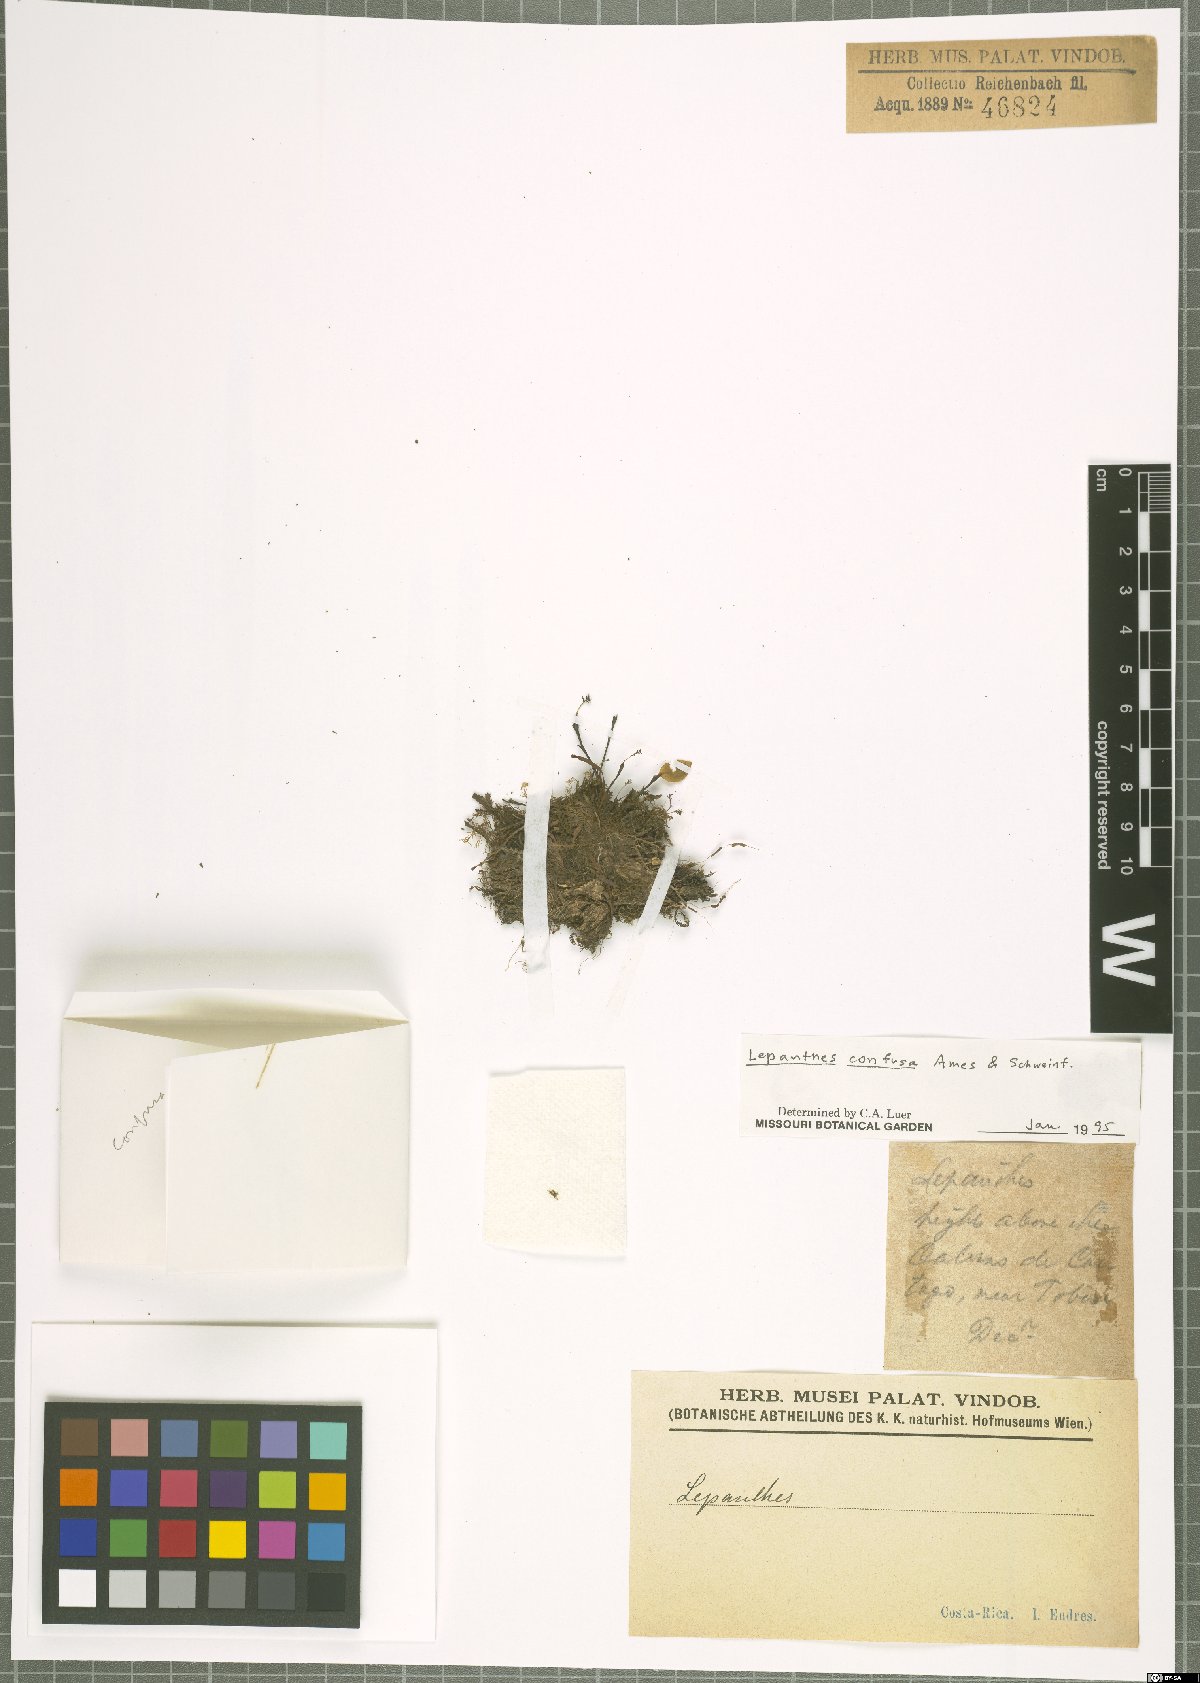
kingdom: Plantae
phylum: Tracheophyta
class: Liliopsida
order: Asparagales
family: Orchidaceae
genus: Lepanthes
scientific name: Lepanthes confusa
